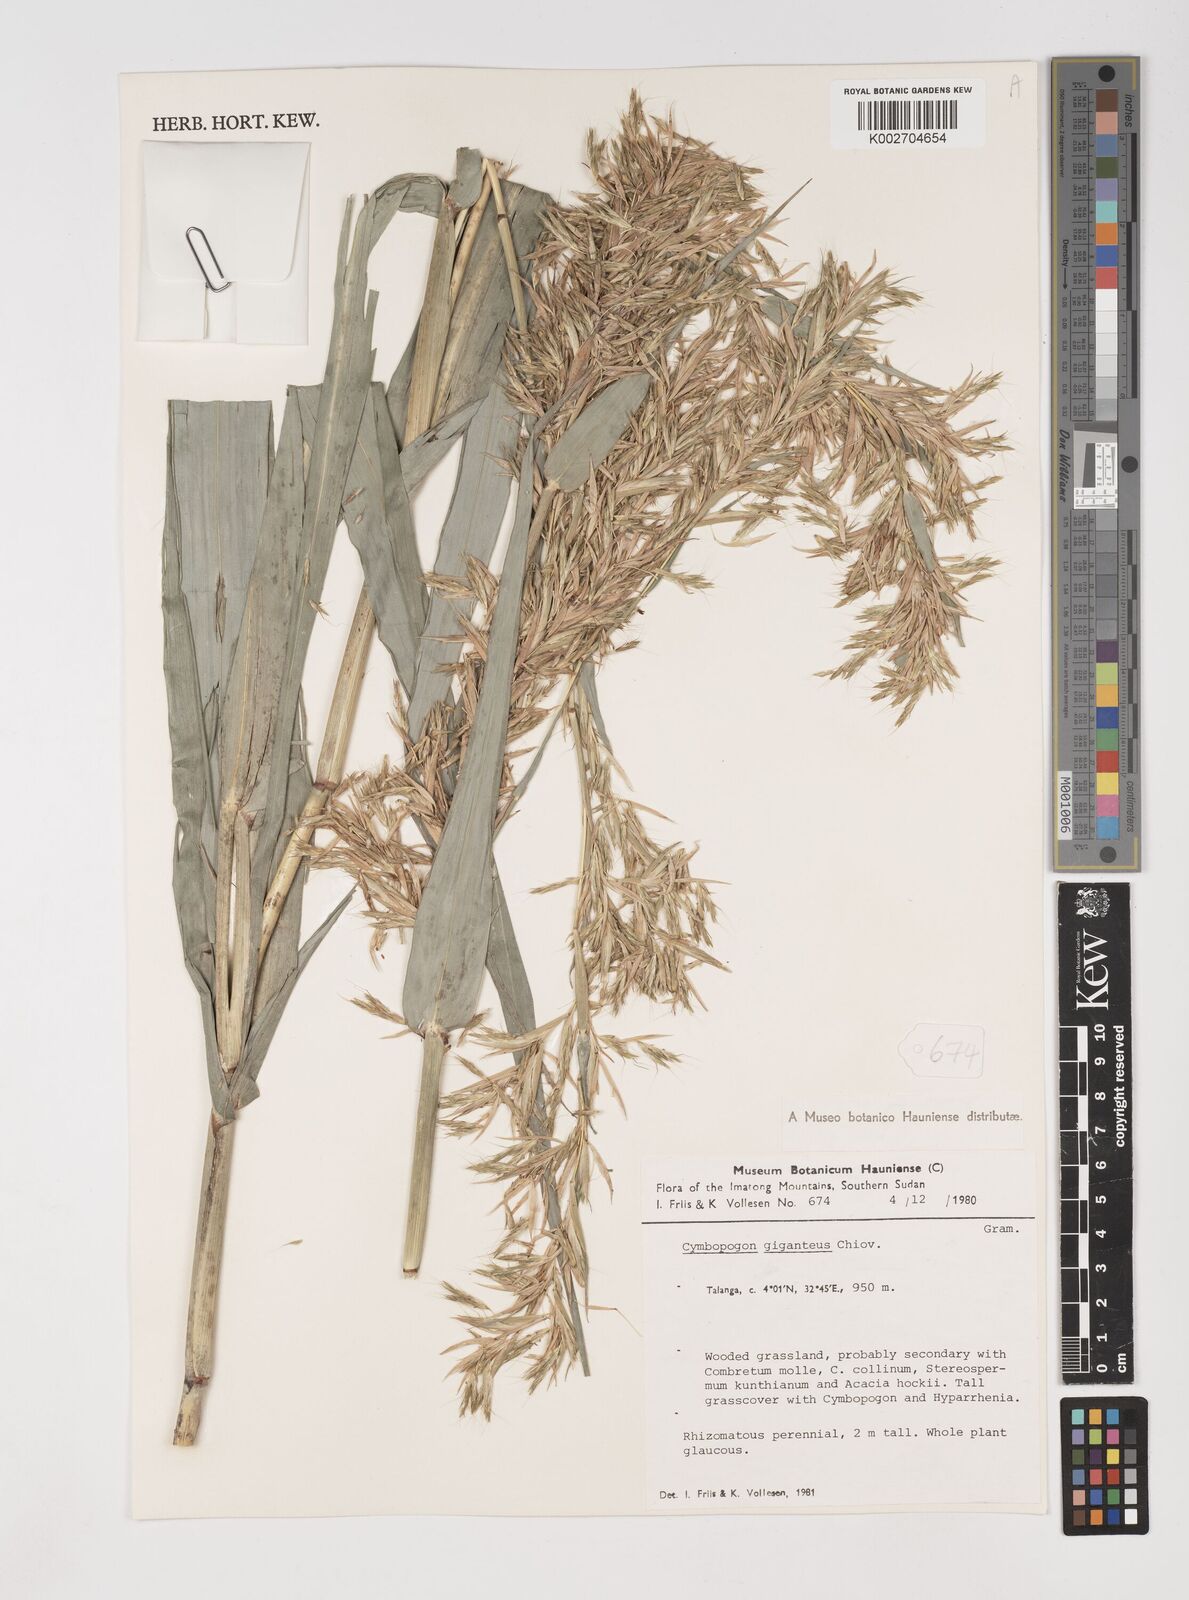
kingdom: Plantae
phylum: Tracheophyta
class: Liliopsida
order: Poales
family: Poaceae
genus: Cymbopogon
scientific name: Cymbopogon giganteus
